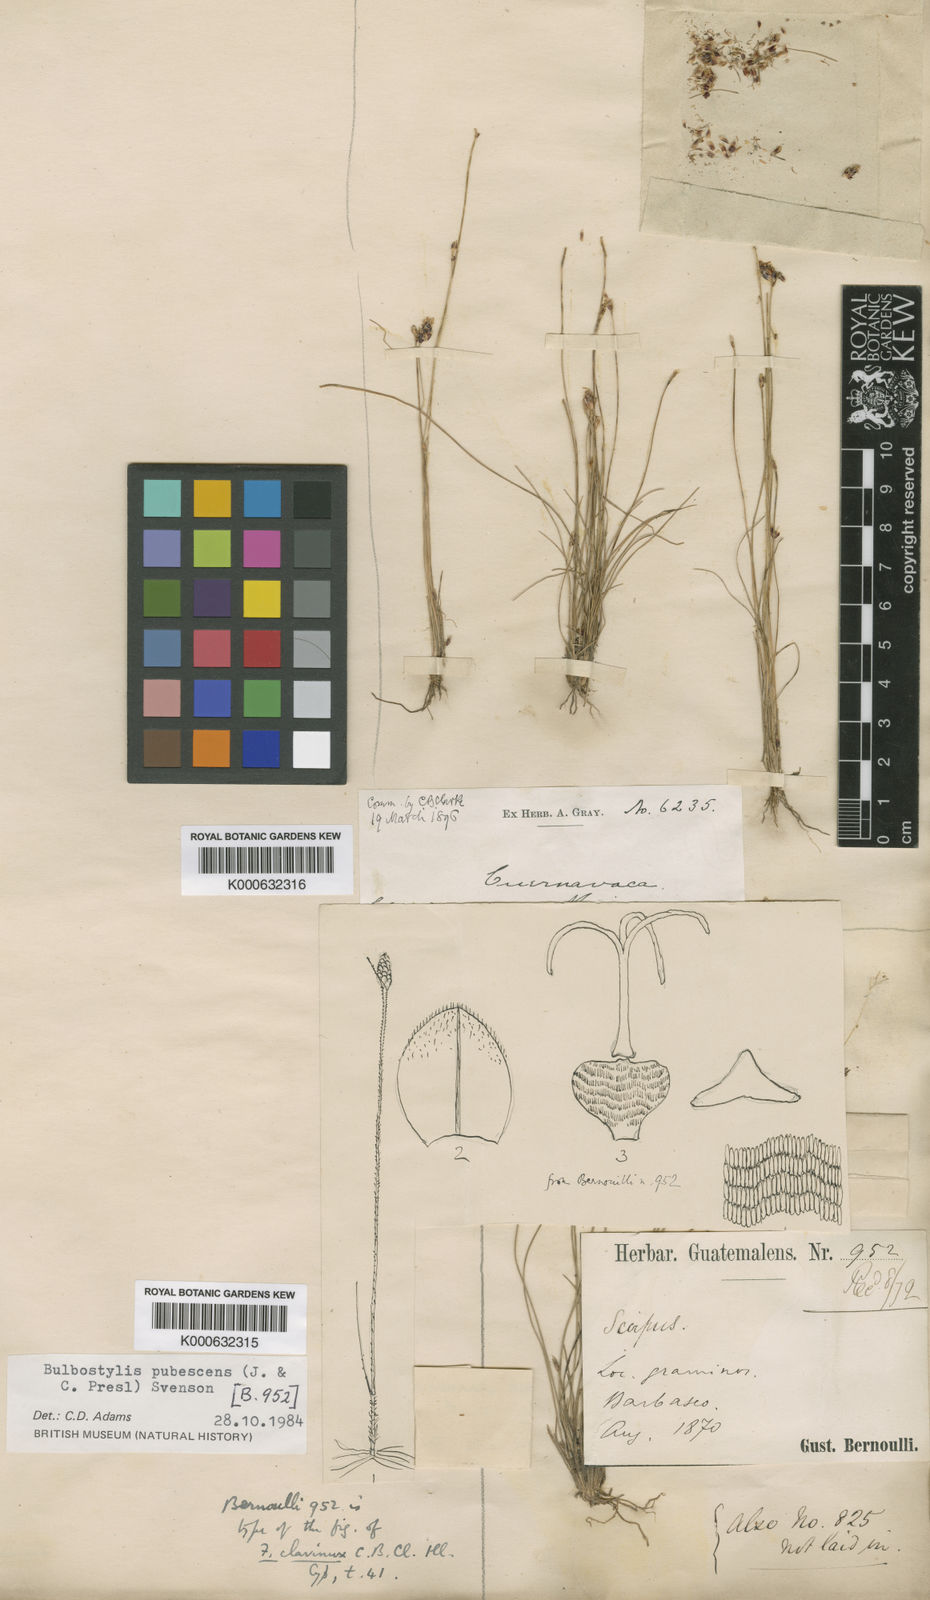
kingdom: Plantae
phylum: Tracheophyta
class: Liliopsida
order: Poales
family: Cyperaceae
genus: Bulbostylis
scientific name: Bulbostylis pubescens
